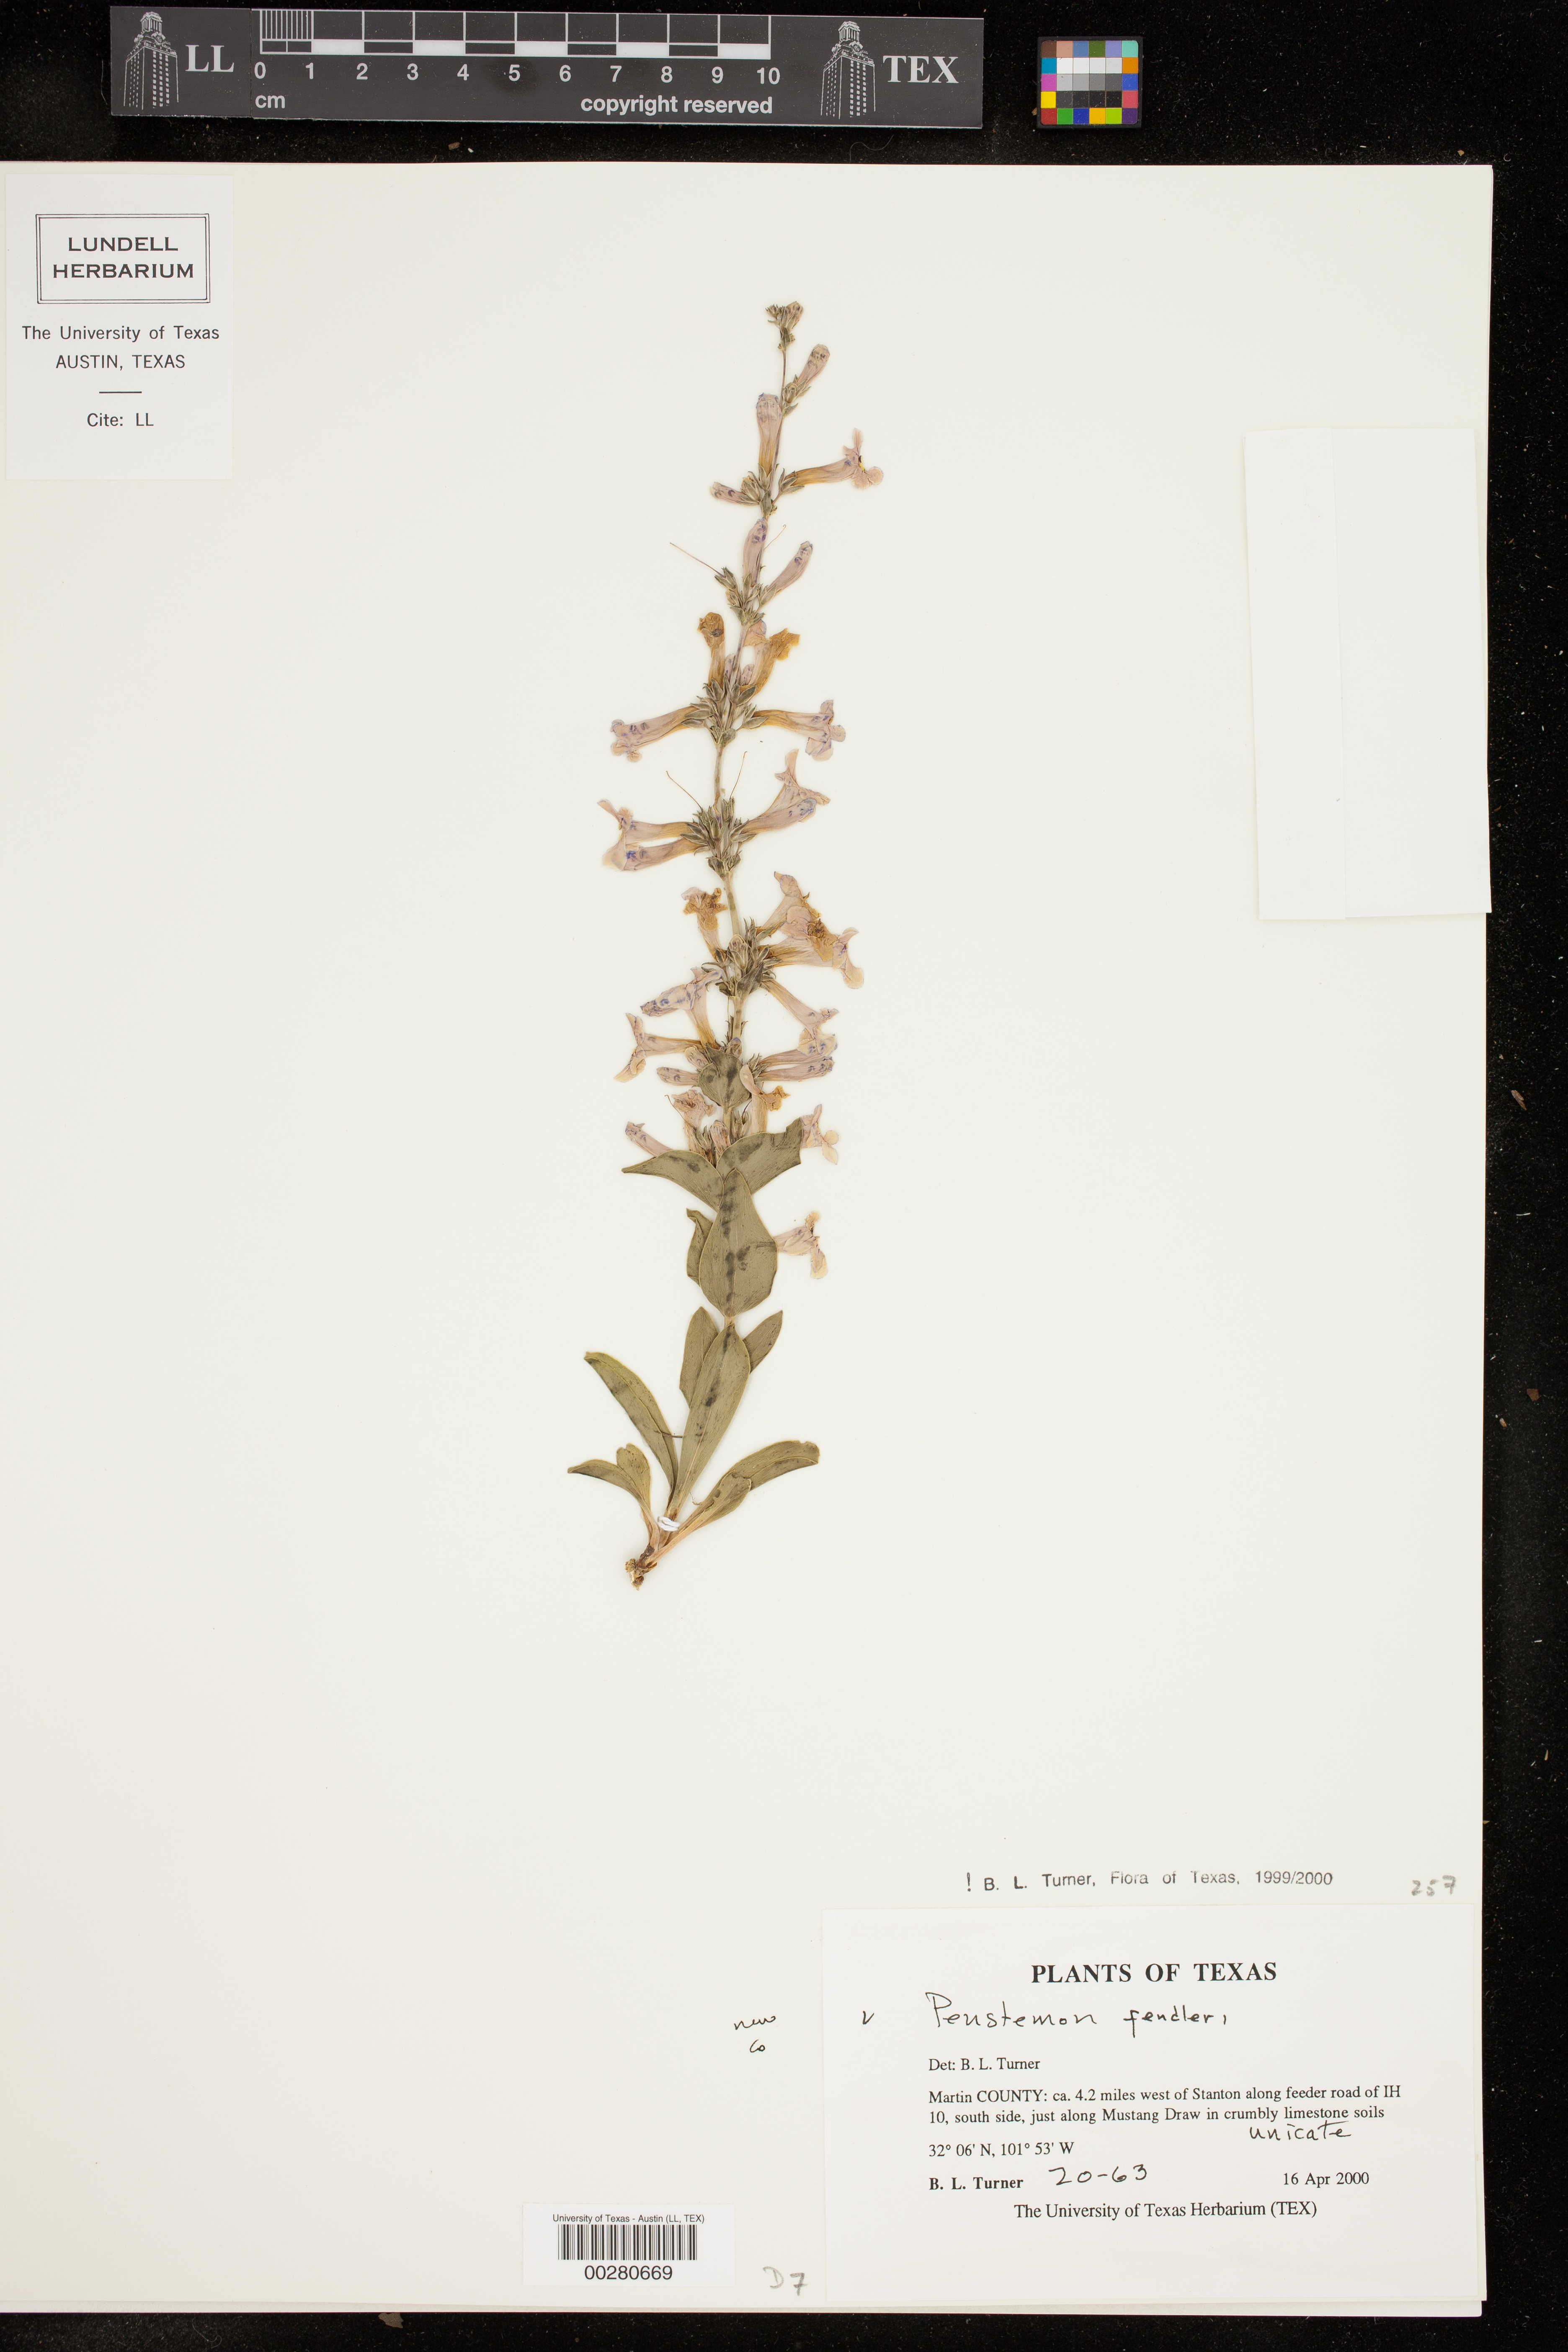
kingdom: Plantae
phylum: Tracheophyta
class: Magnoliopsida
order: Lamiales
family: Plantaginaceae
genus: Penstemon
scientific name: Penstemon fendleri
